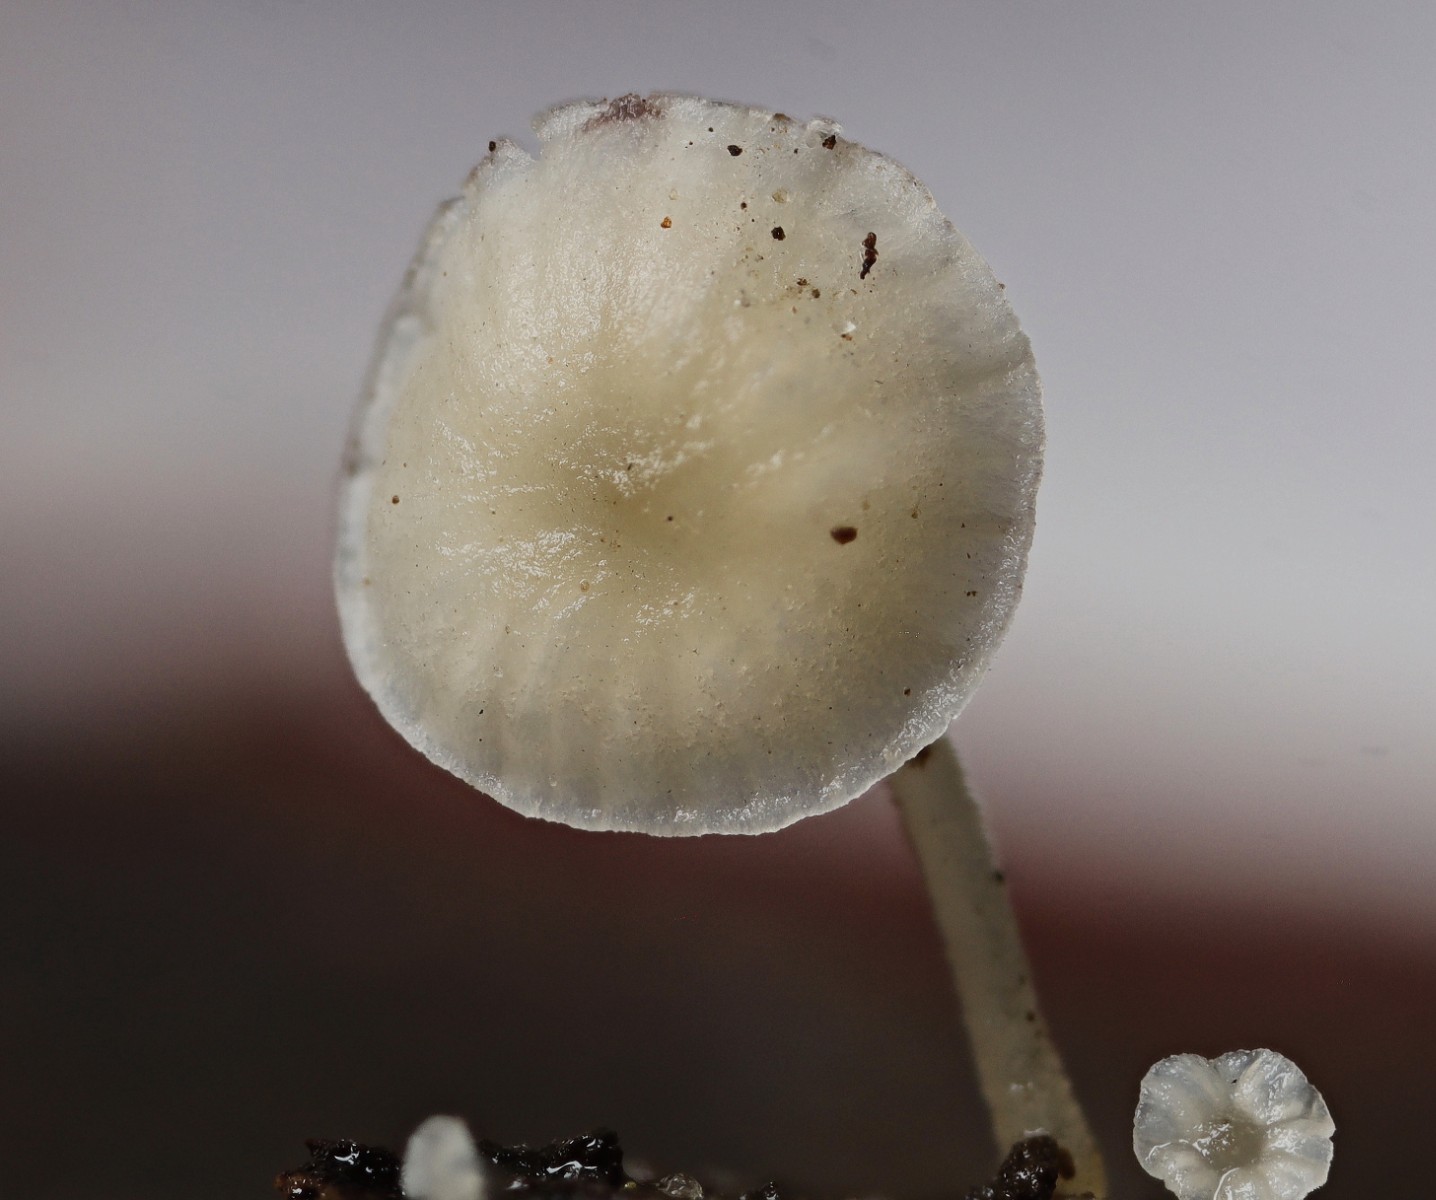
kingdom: Fungi
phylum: Basidiomycota
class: Agaricomycetes
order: Agaricales
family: Porotheleaceae
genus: Phloeomana
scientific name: Phloeomana speirea
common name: kvist-huesvamp
